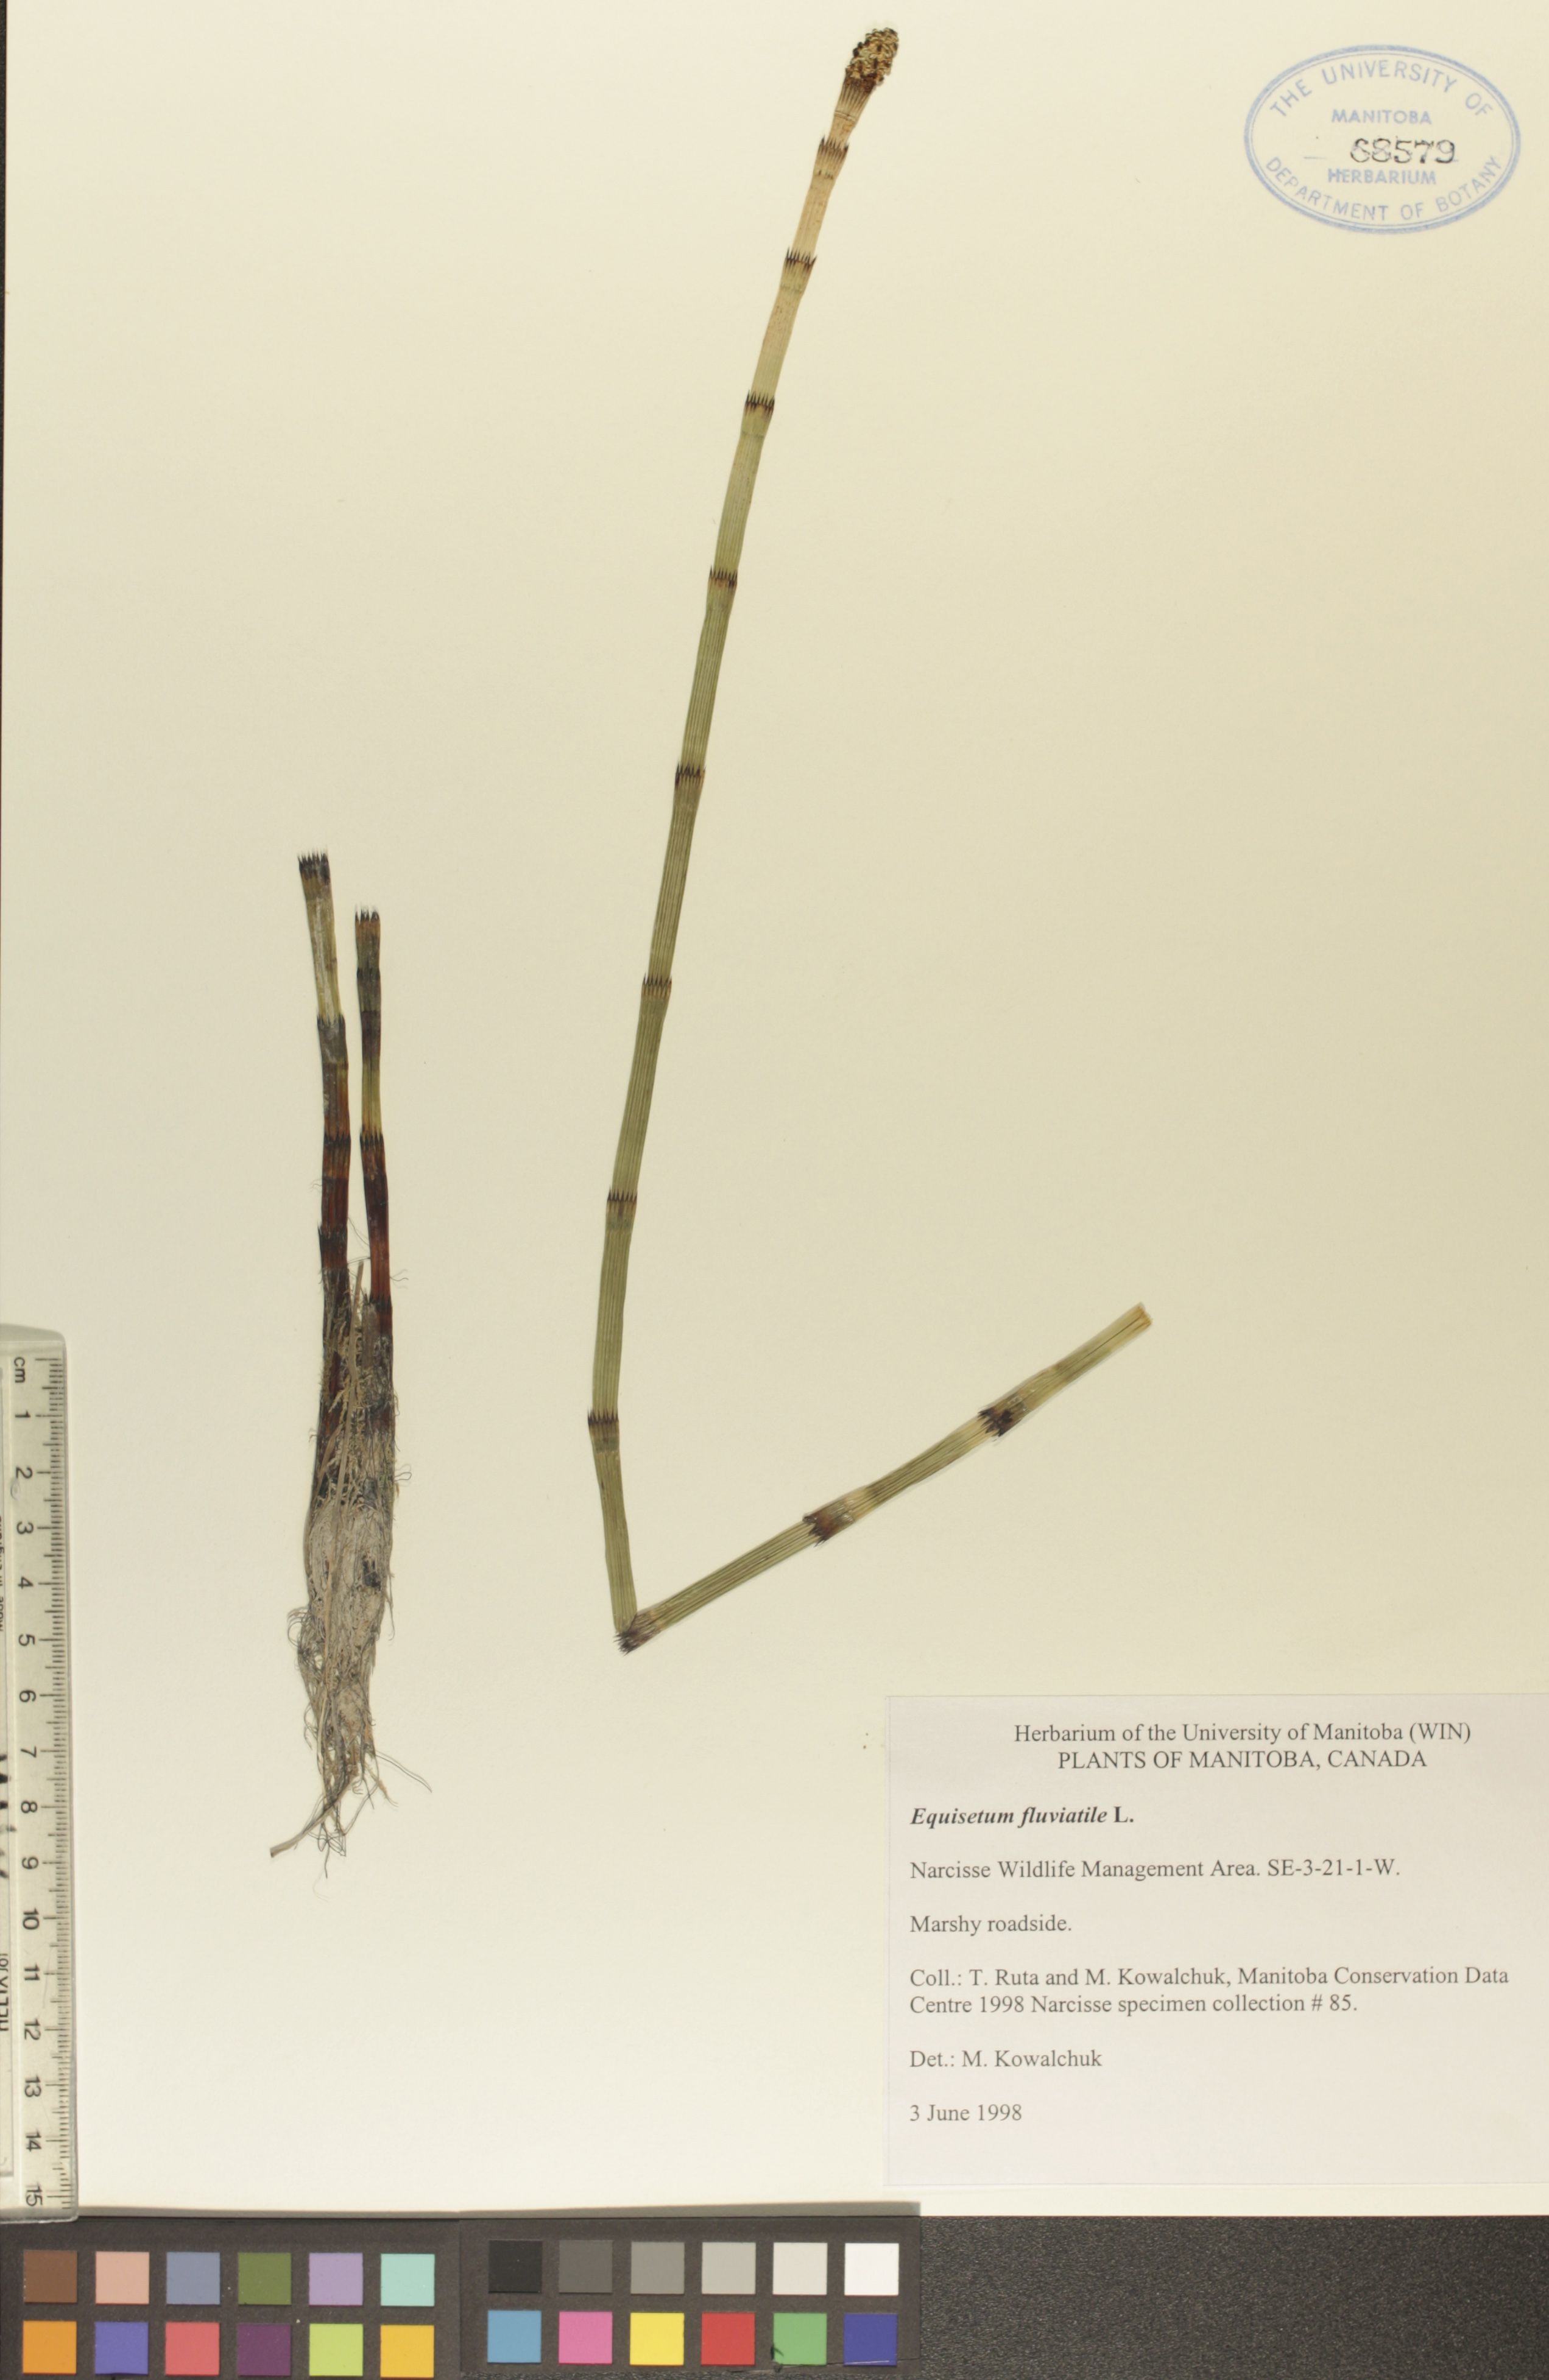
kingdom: Plantae
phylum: Tracheophyta
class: Polypodiopsida
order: Equisetales
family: Equisetaceae
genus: Equisetum
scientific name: Equisetum fluviatile
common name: Water horsetail
